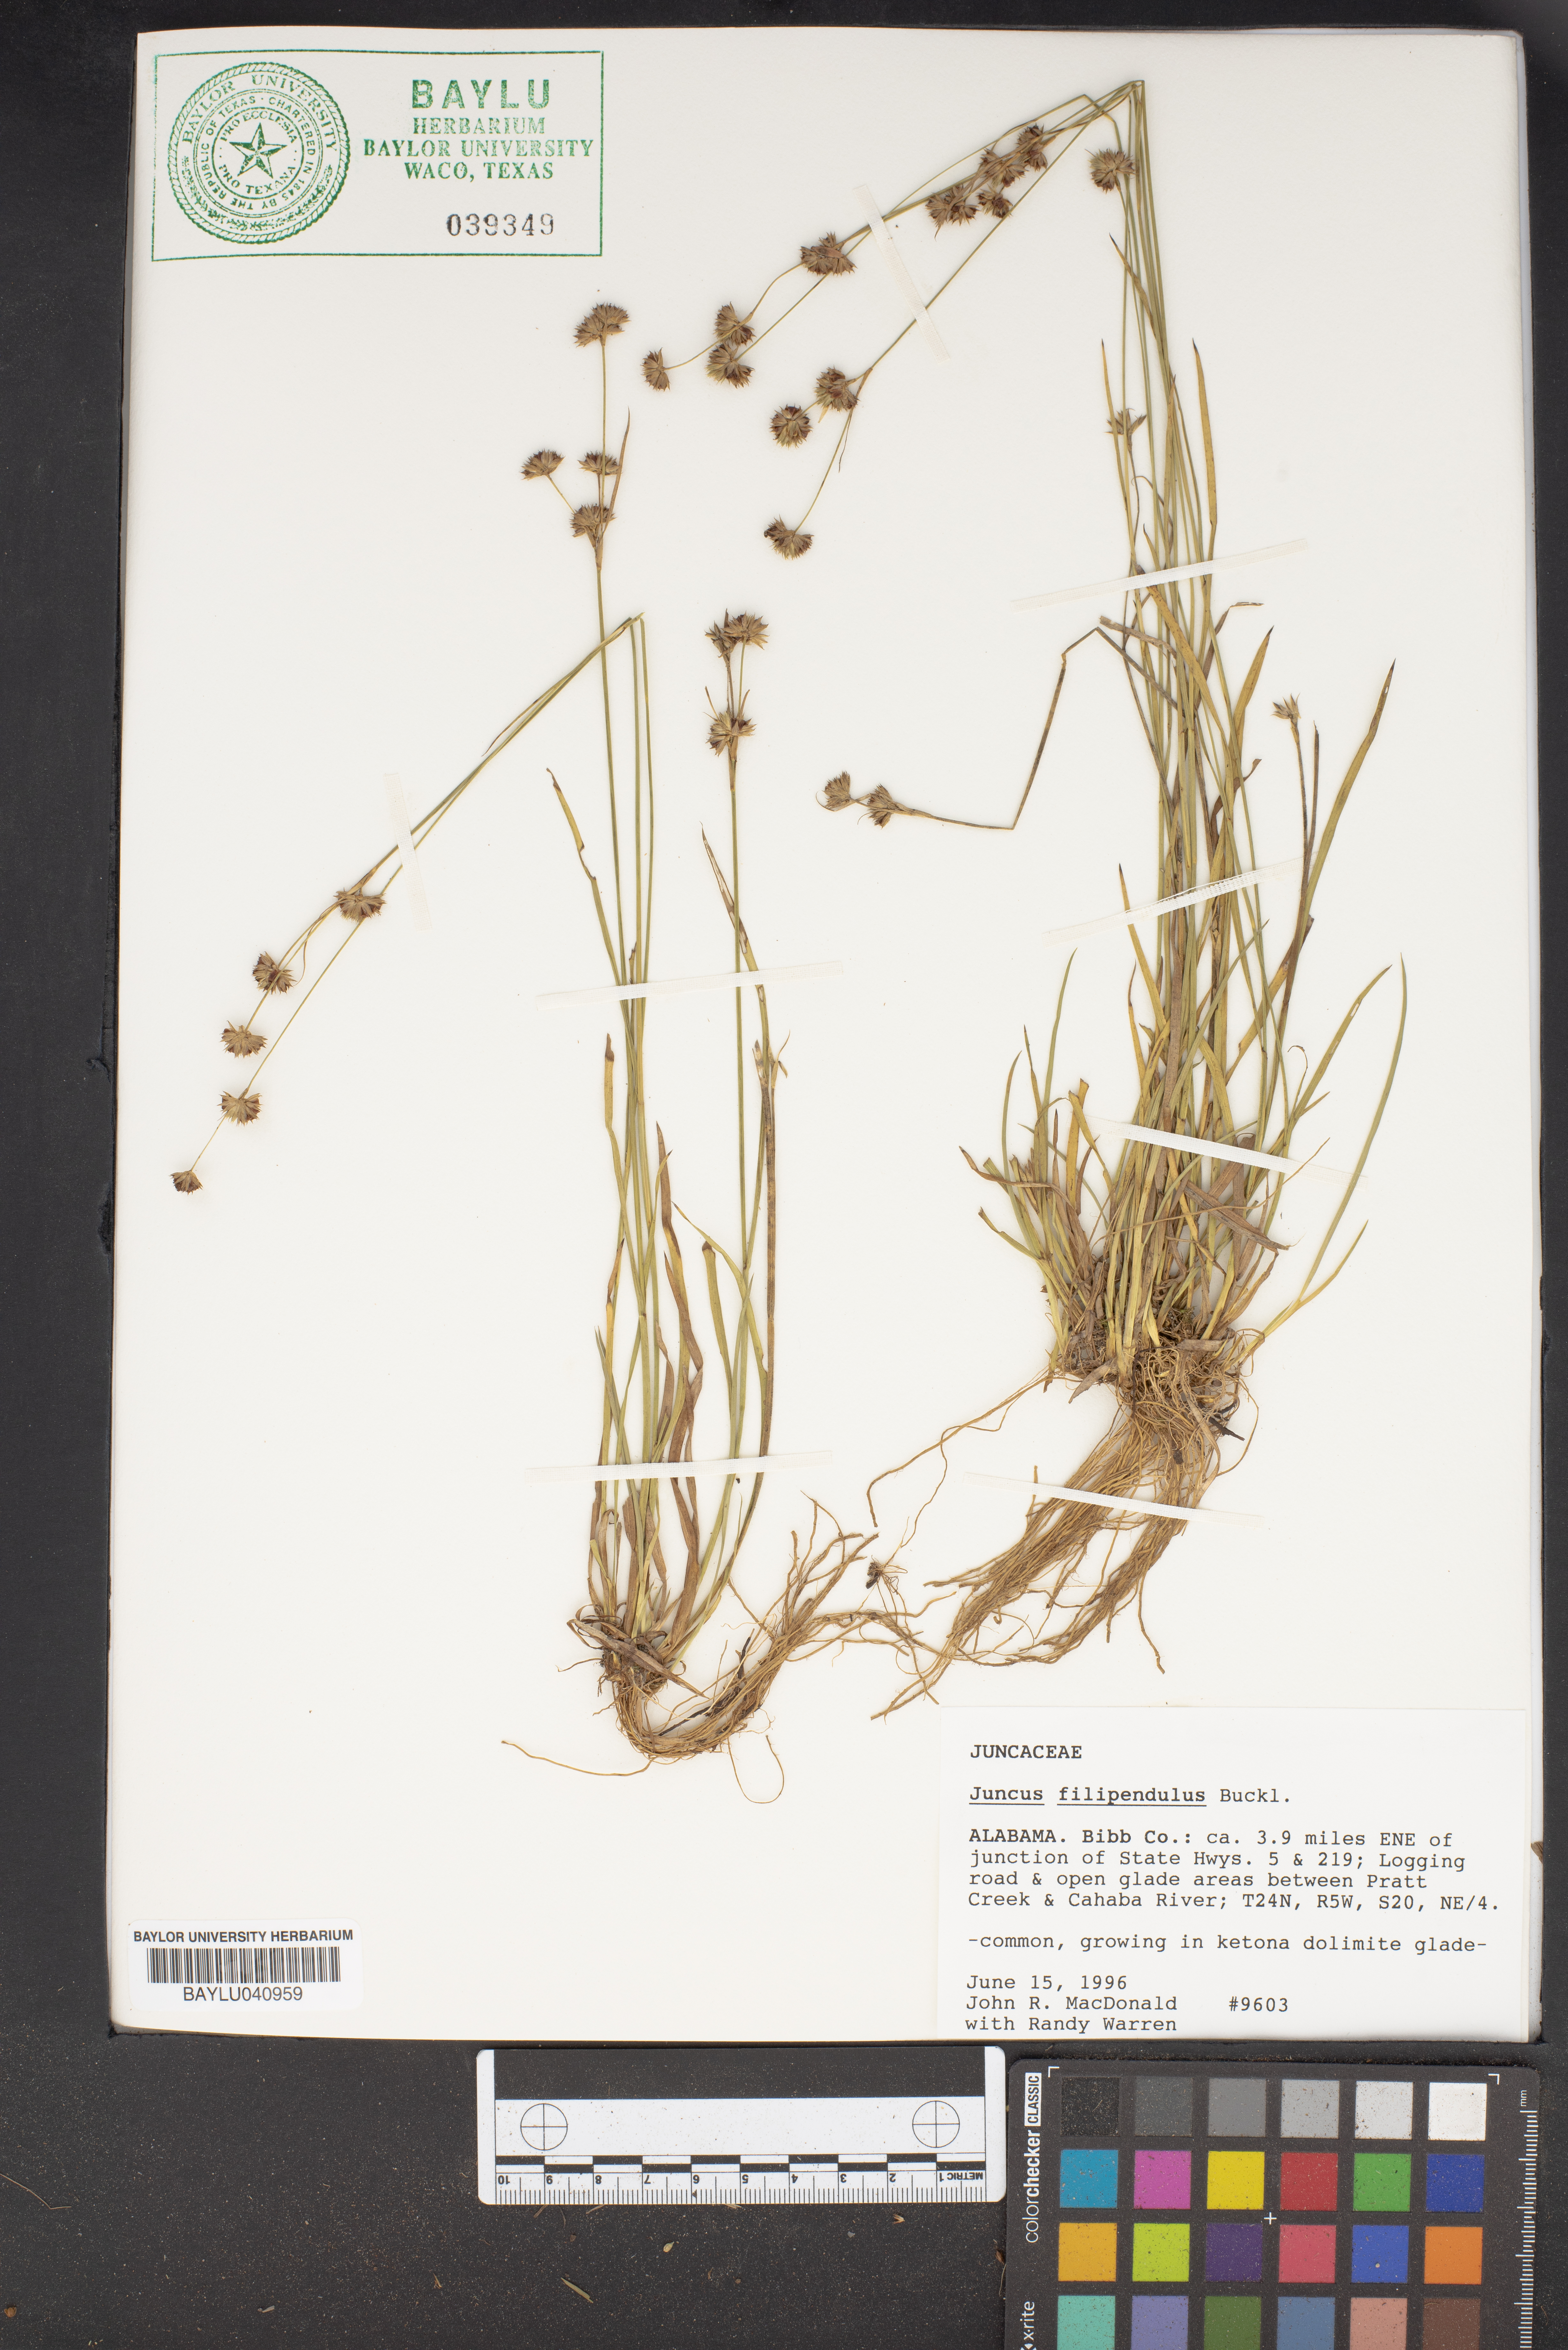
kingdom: Plantae
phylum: Tracheophyta
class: Liliopsida
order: Poales
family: Juncaceae
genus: Juncus
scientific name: Juncus filipendulus
